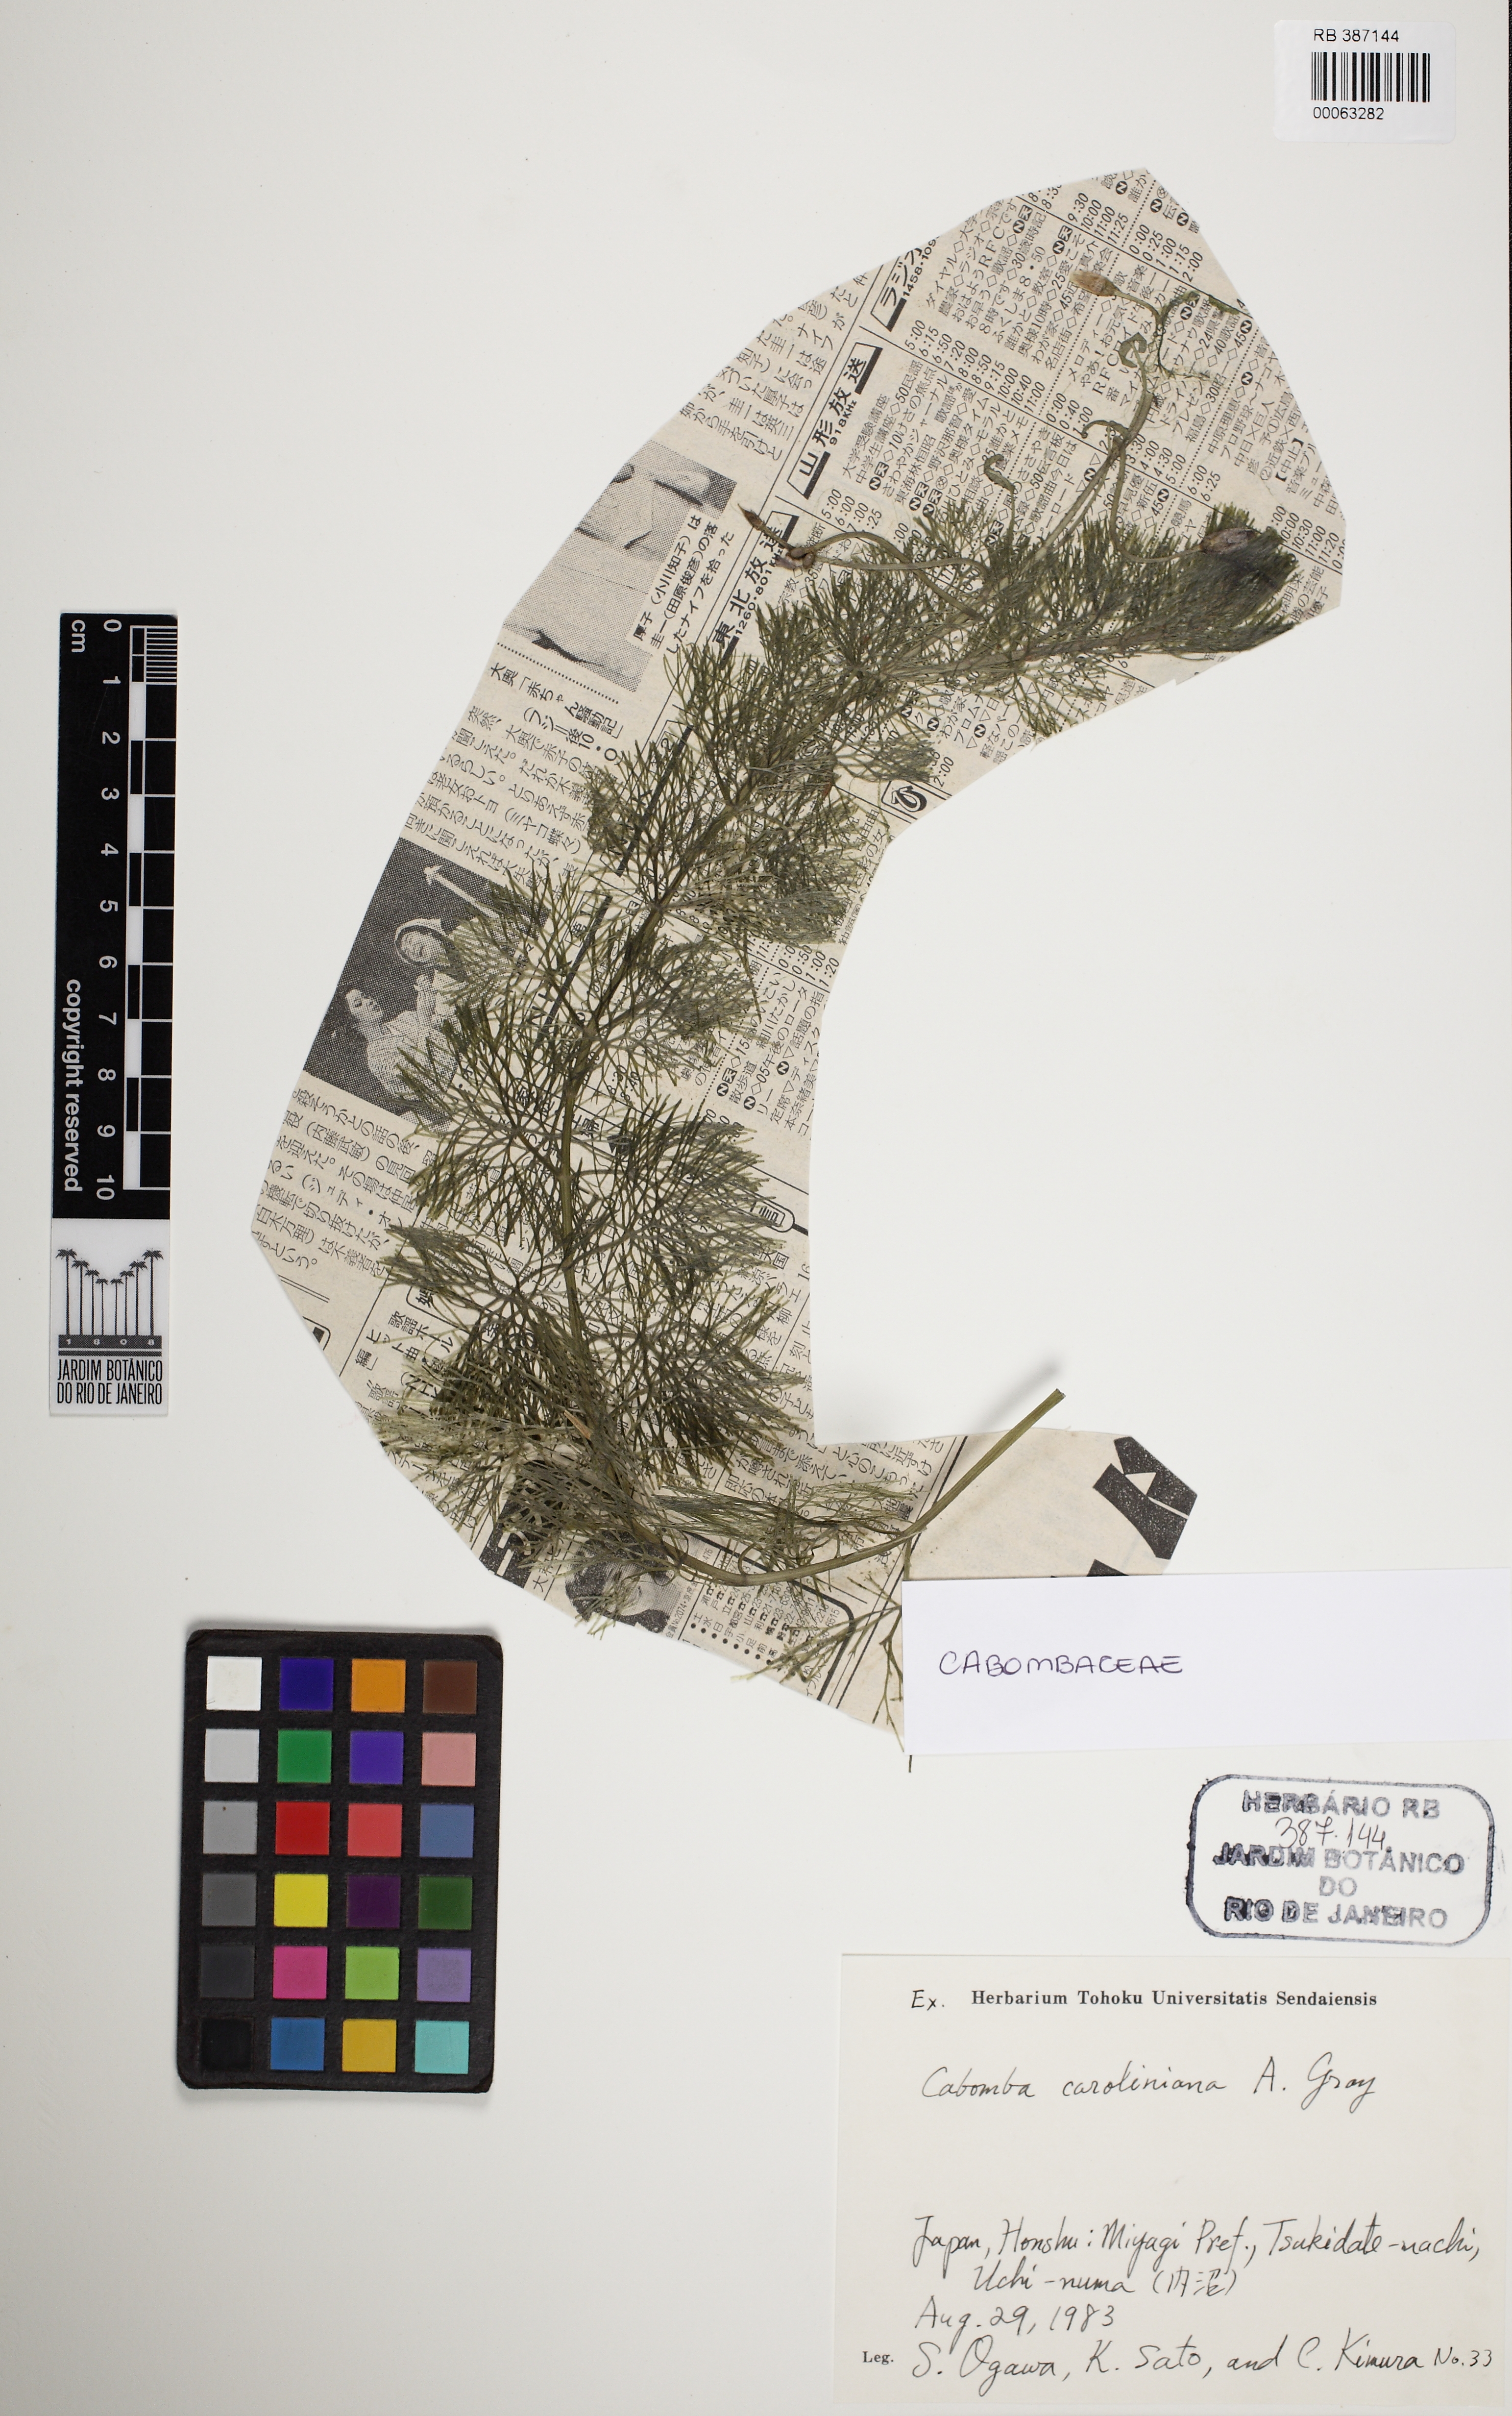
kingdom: Plantae
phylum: Tracheophyta
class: Magnoliopsida
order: Nymphaeales
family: Cabombaceae
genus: Cabomba
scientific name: Cabomba caroliniana
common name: Fanwort
